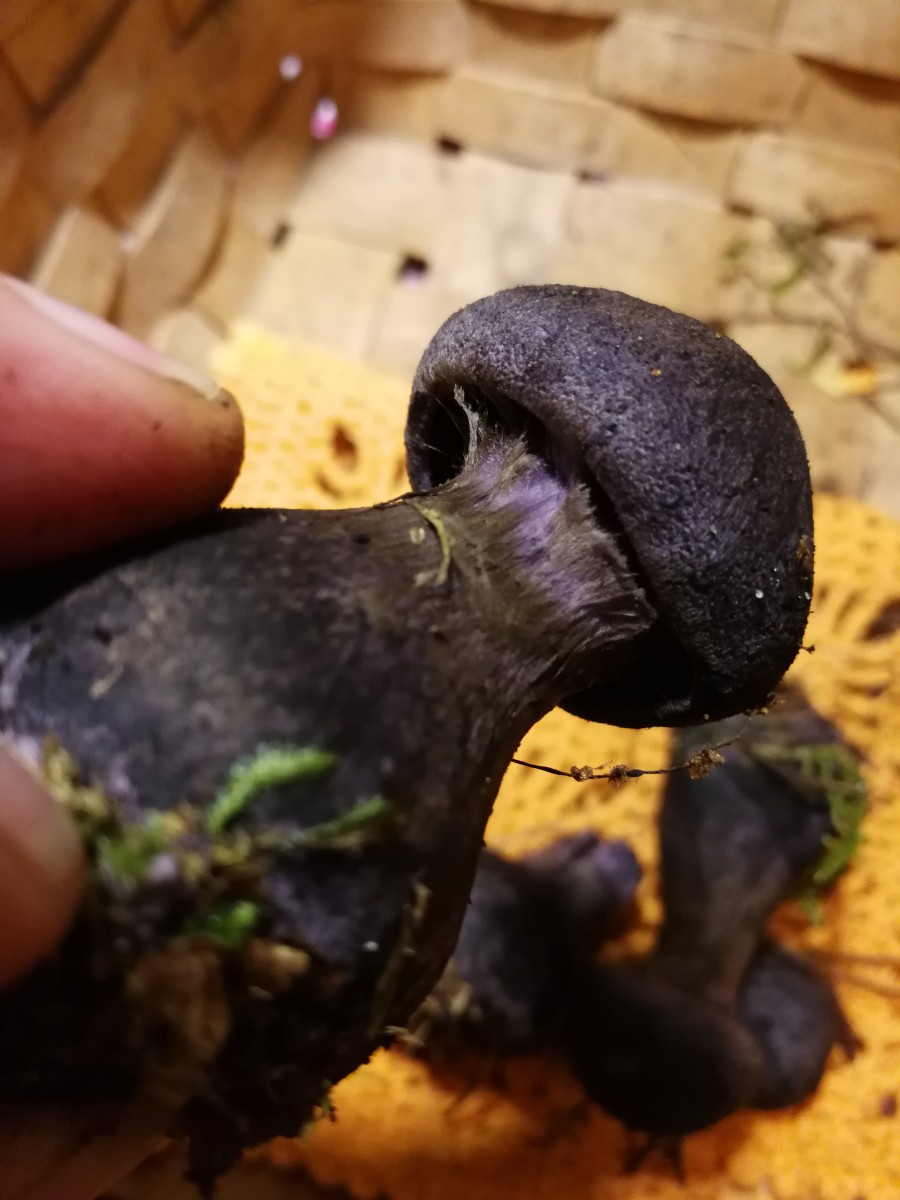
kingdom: Fungi
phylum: Basidiomycota
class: Agaricomycetes
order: Agaricales
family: Cortinariaceae
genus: Cortinarius
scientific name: Cortinarius violaceus
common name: mørkviolet slørhat
